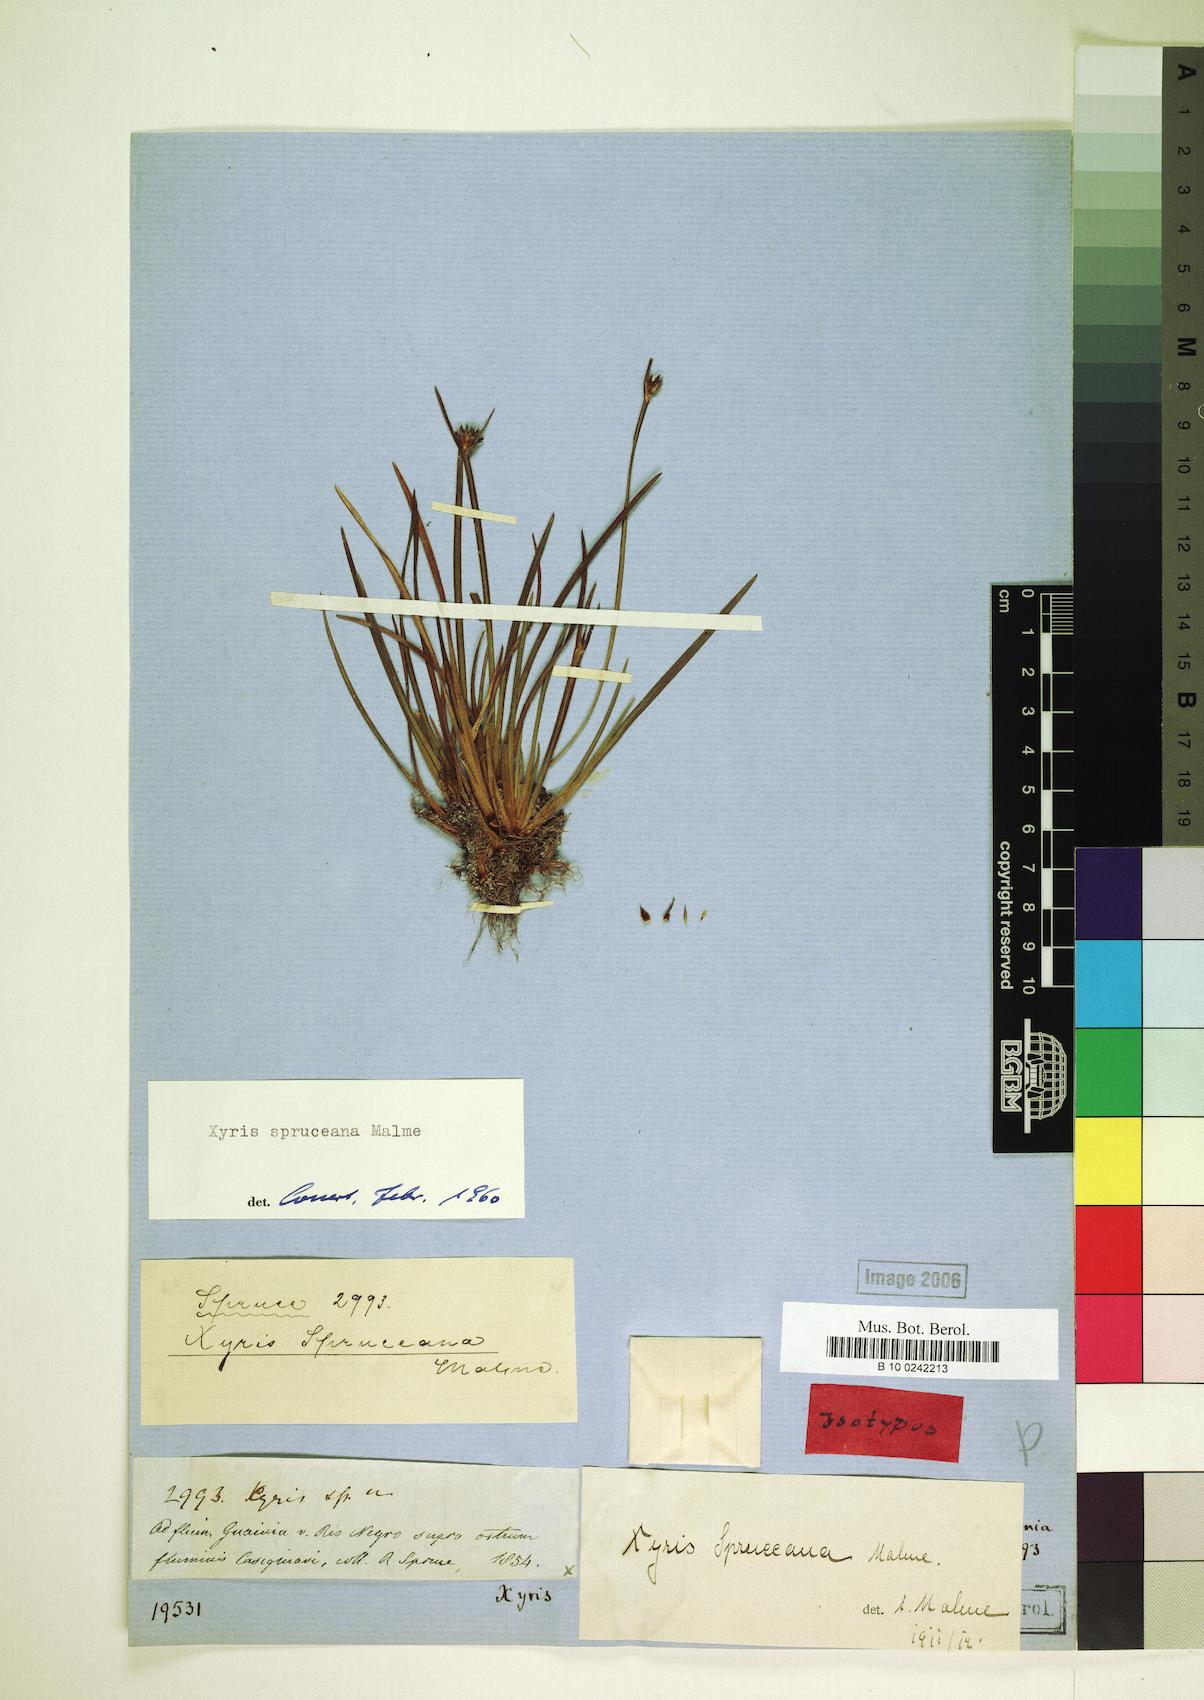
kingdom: Plantae
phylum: Tracheophyta
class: Liliopsida
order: Poales
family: Xyridaceae
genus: Xyris
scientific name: Xyris spruceana
